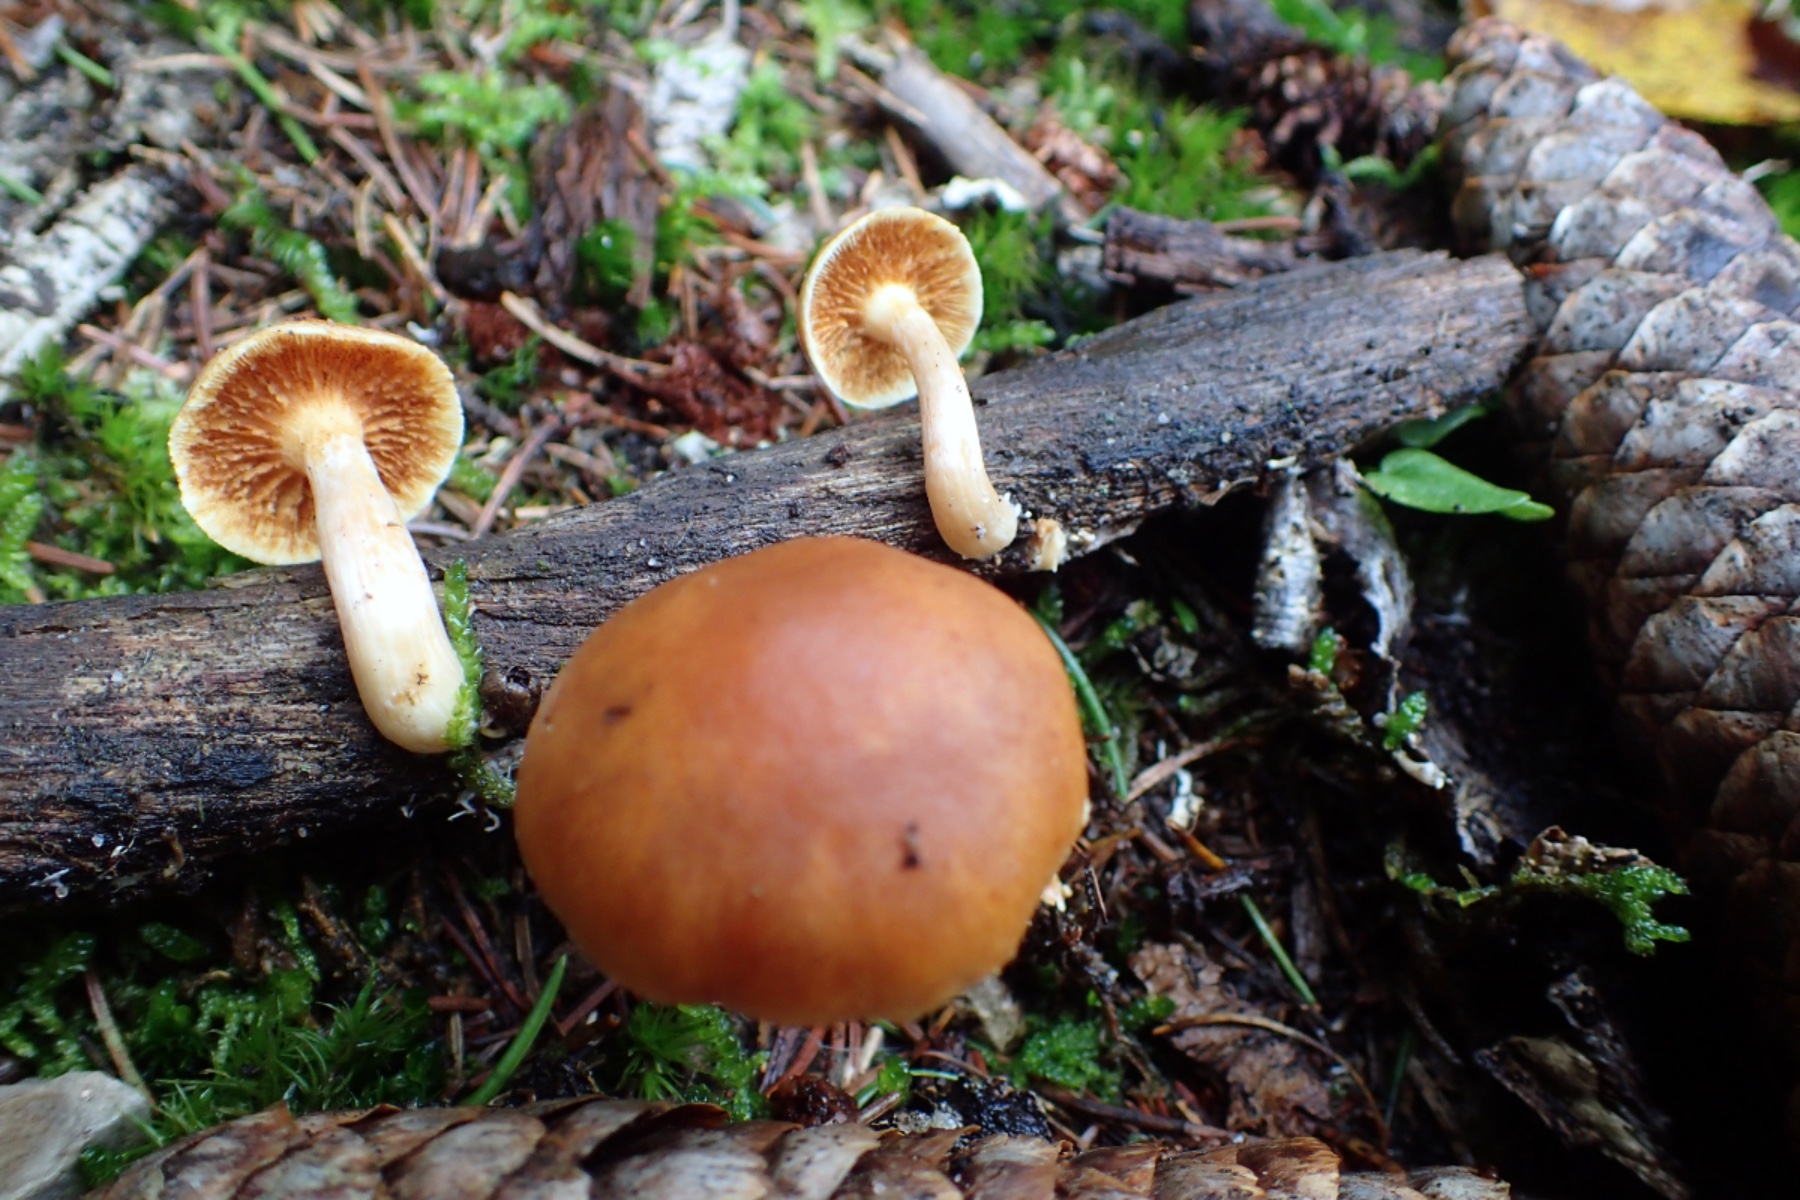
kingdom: Fungi
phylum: Basidiomycota
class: Agaricomycetes
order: Agaricales
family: Hymenogastraceae
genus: Gymnopilus
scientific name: Gymnopilus penetrans
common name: plettet flammehat
